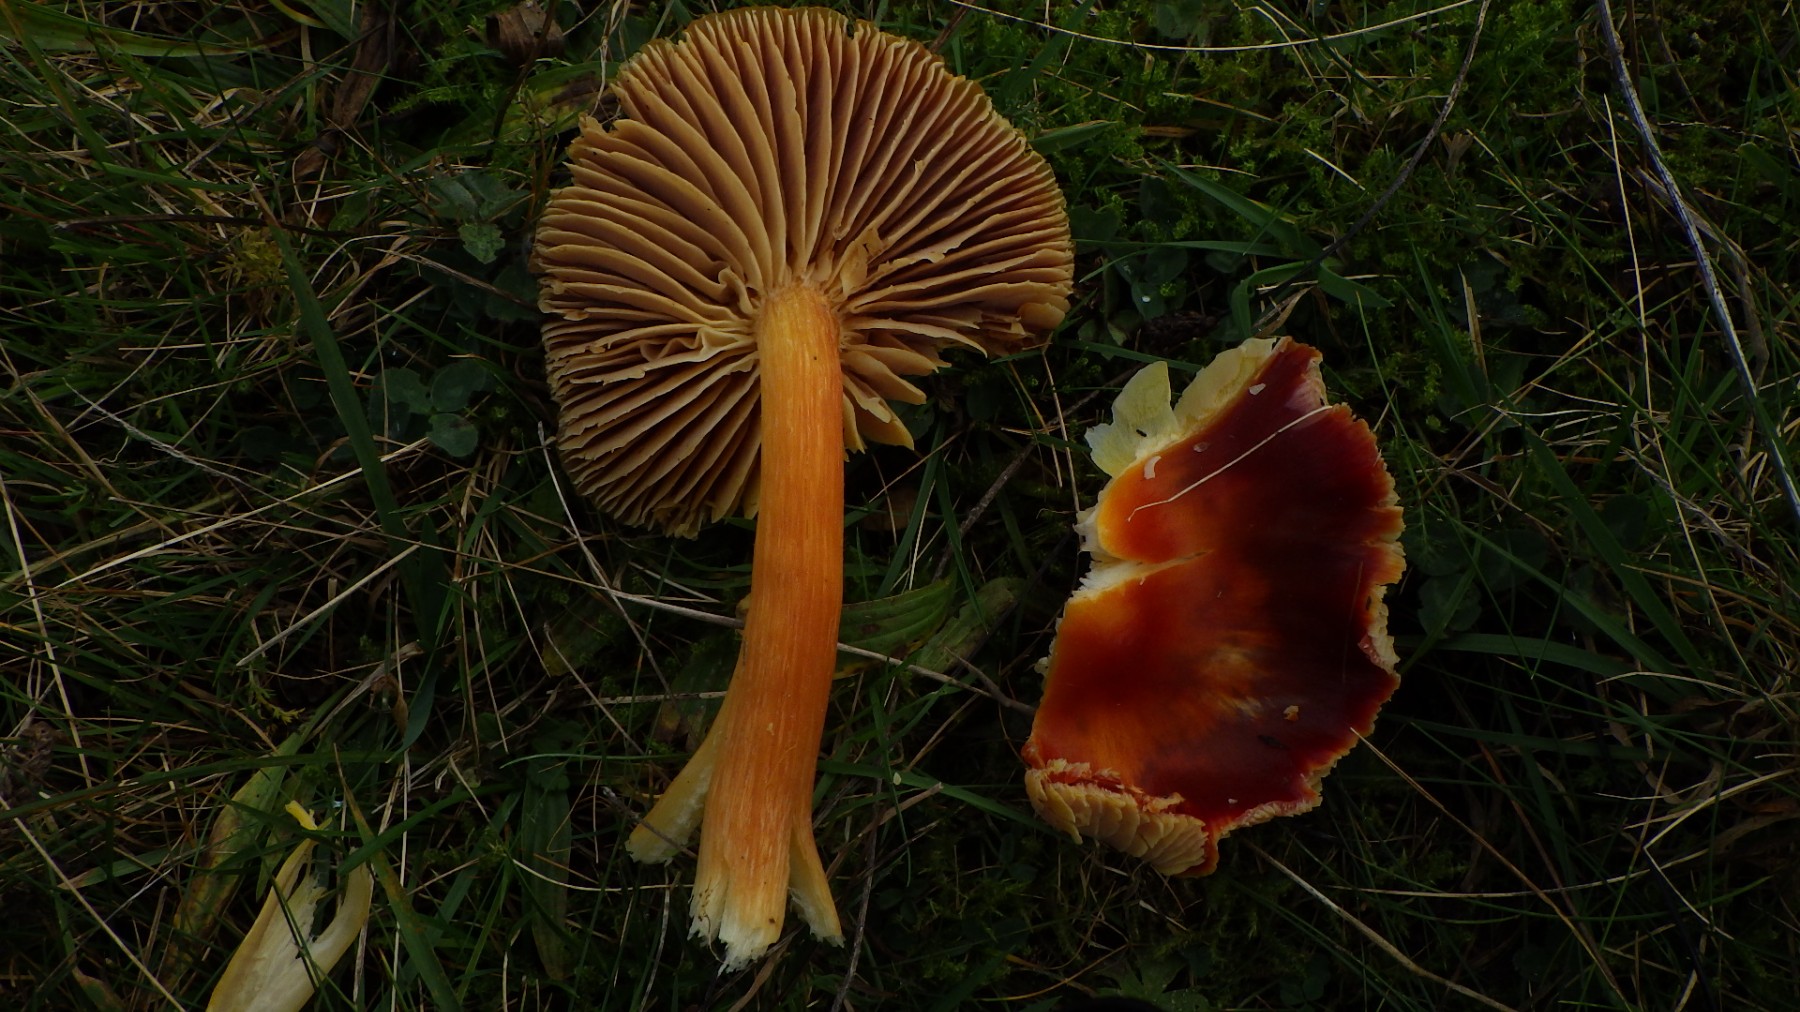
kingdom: Fungi
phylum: Basidiomycota
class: Agaricomycetes
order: Agaricales
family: Hygrophoraceae
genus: Hygrocybe
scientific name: Hygrocybe punicea
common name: skarlagen-vokshat
